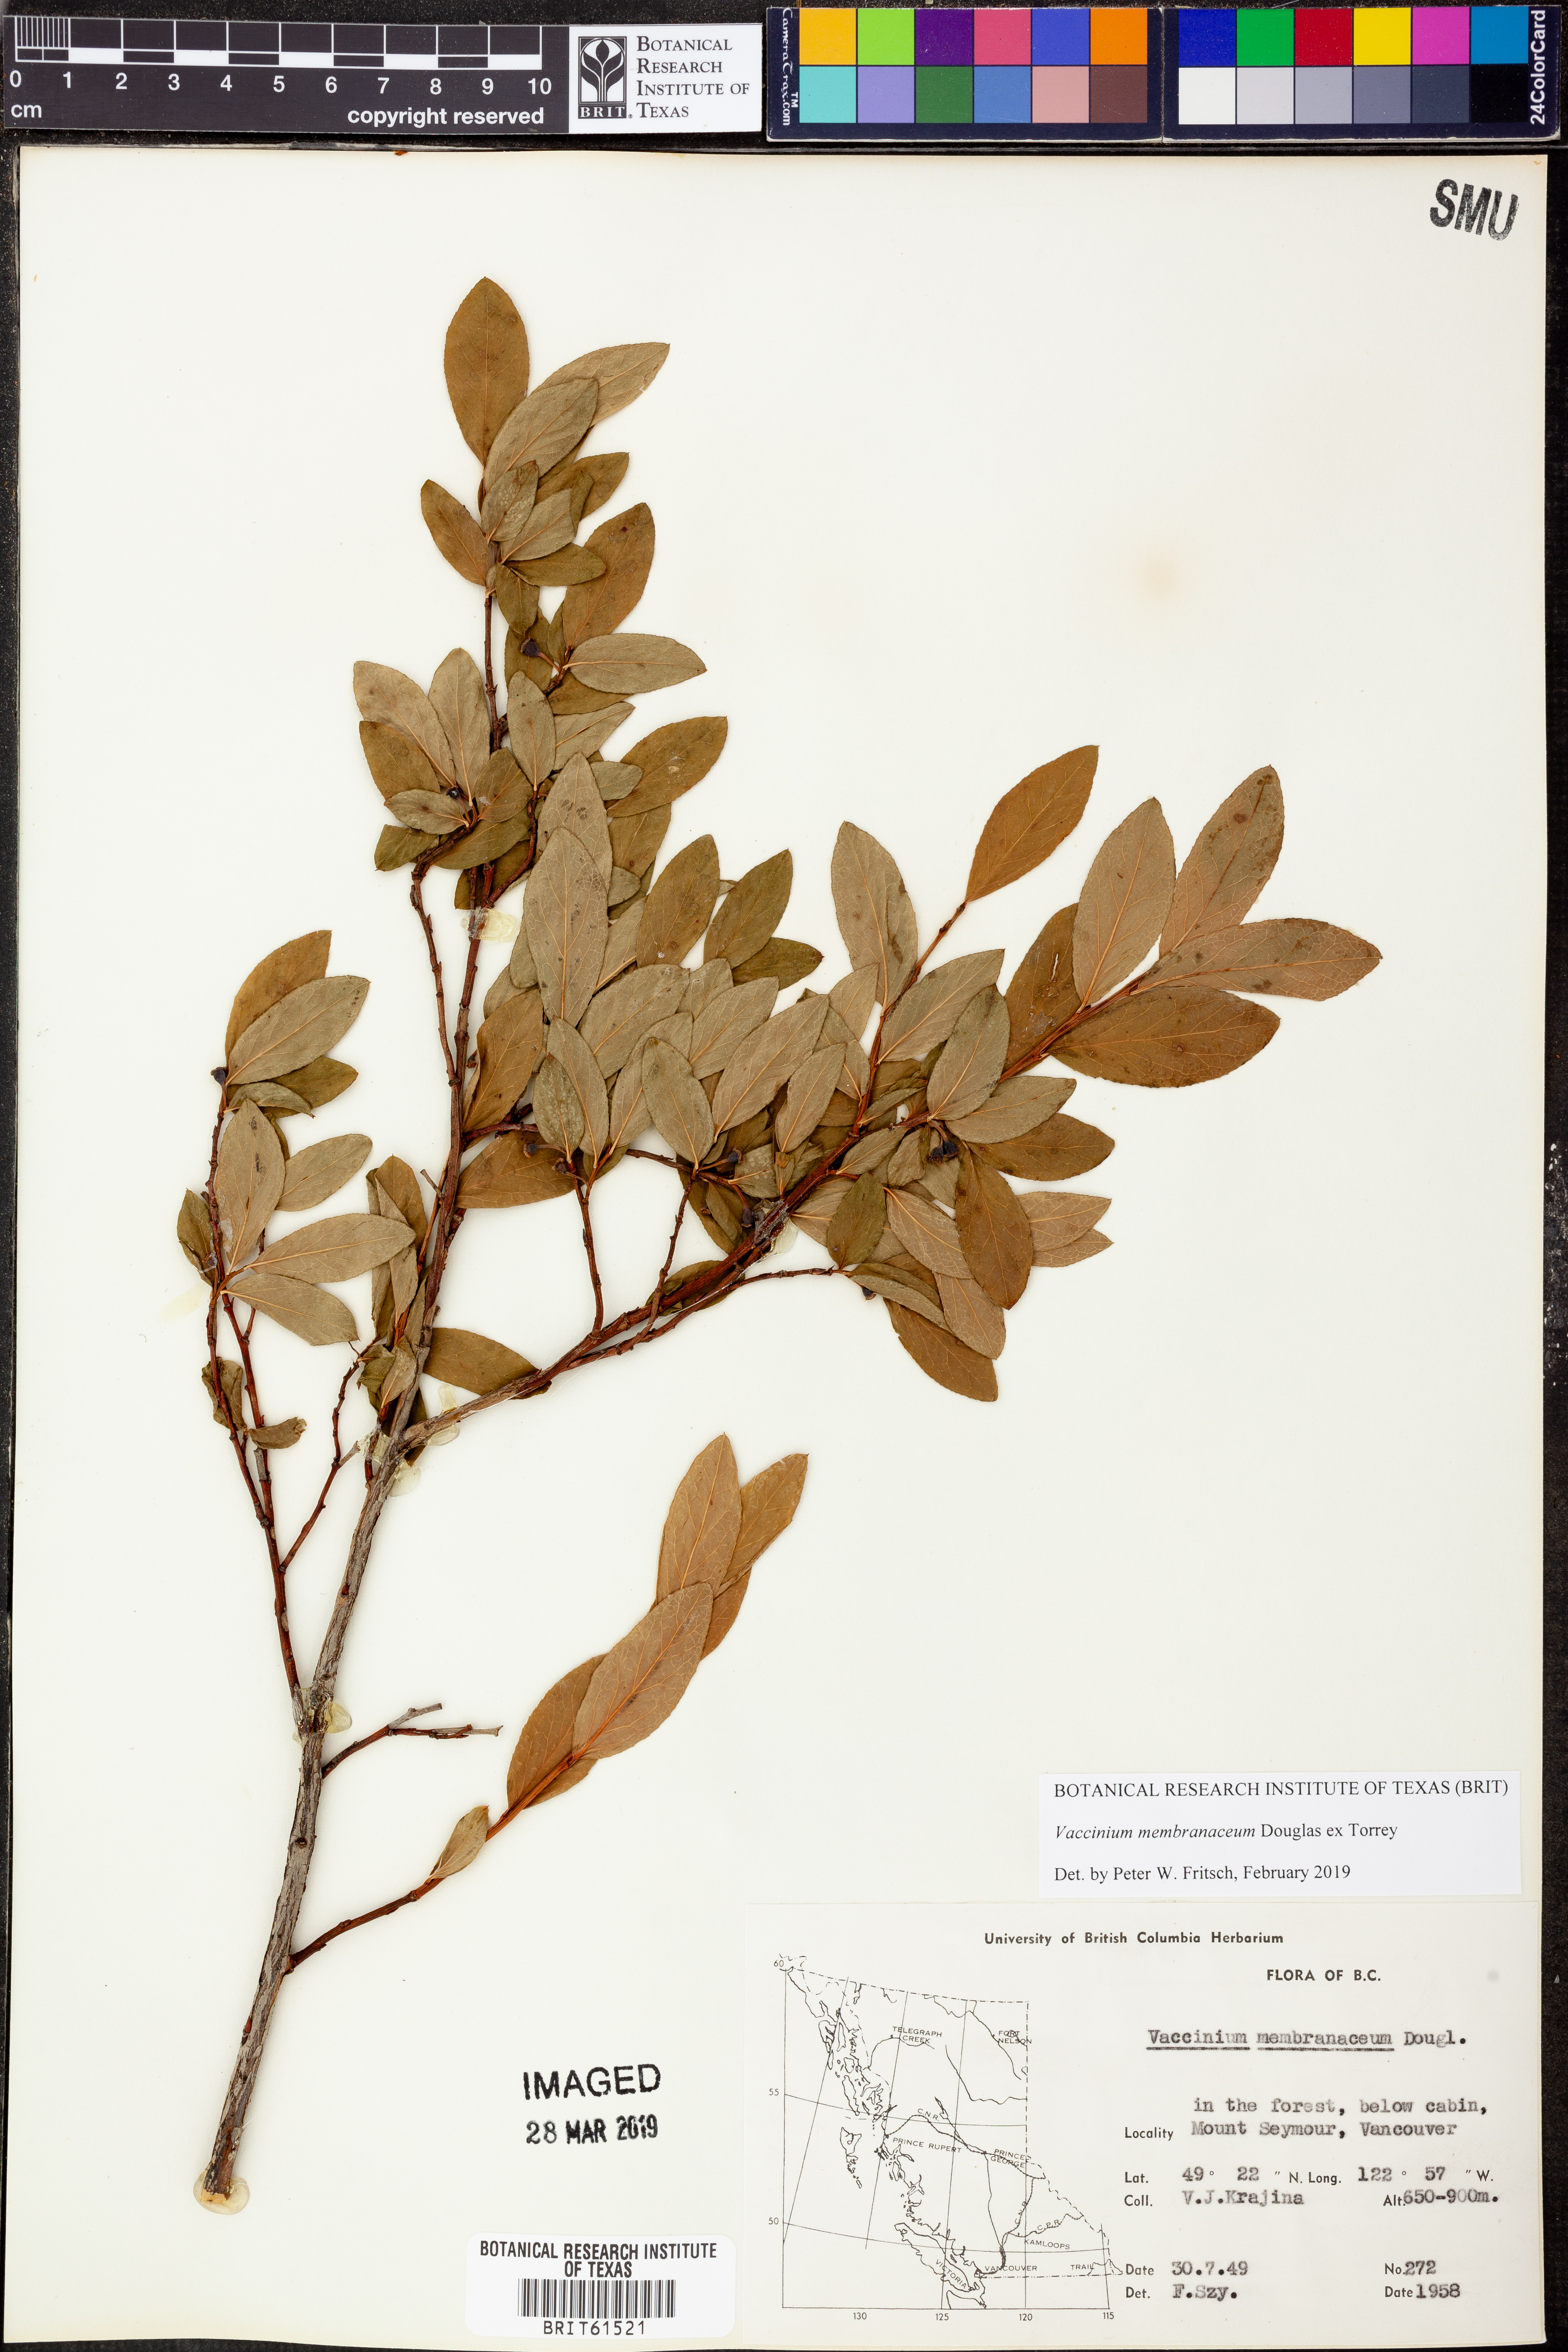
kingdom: Plantae
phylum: Tracheophyta
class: Magnoliopsida
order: Ericales
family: Ericaceae
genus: Vaccinium
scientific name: Vaccinium membranaceum
